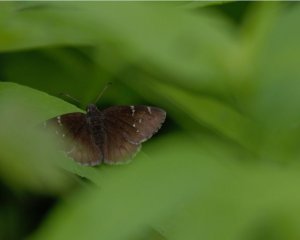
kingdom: Animalia
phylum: Arthropoda
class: Insecta
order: Lepidoptera
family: Hesperiidae
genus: Autochton
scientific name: Autochton
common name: Northern Cloudywing
